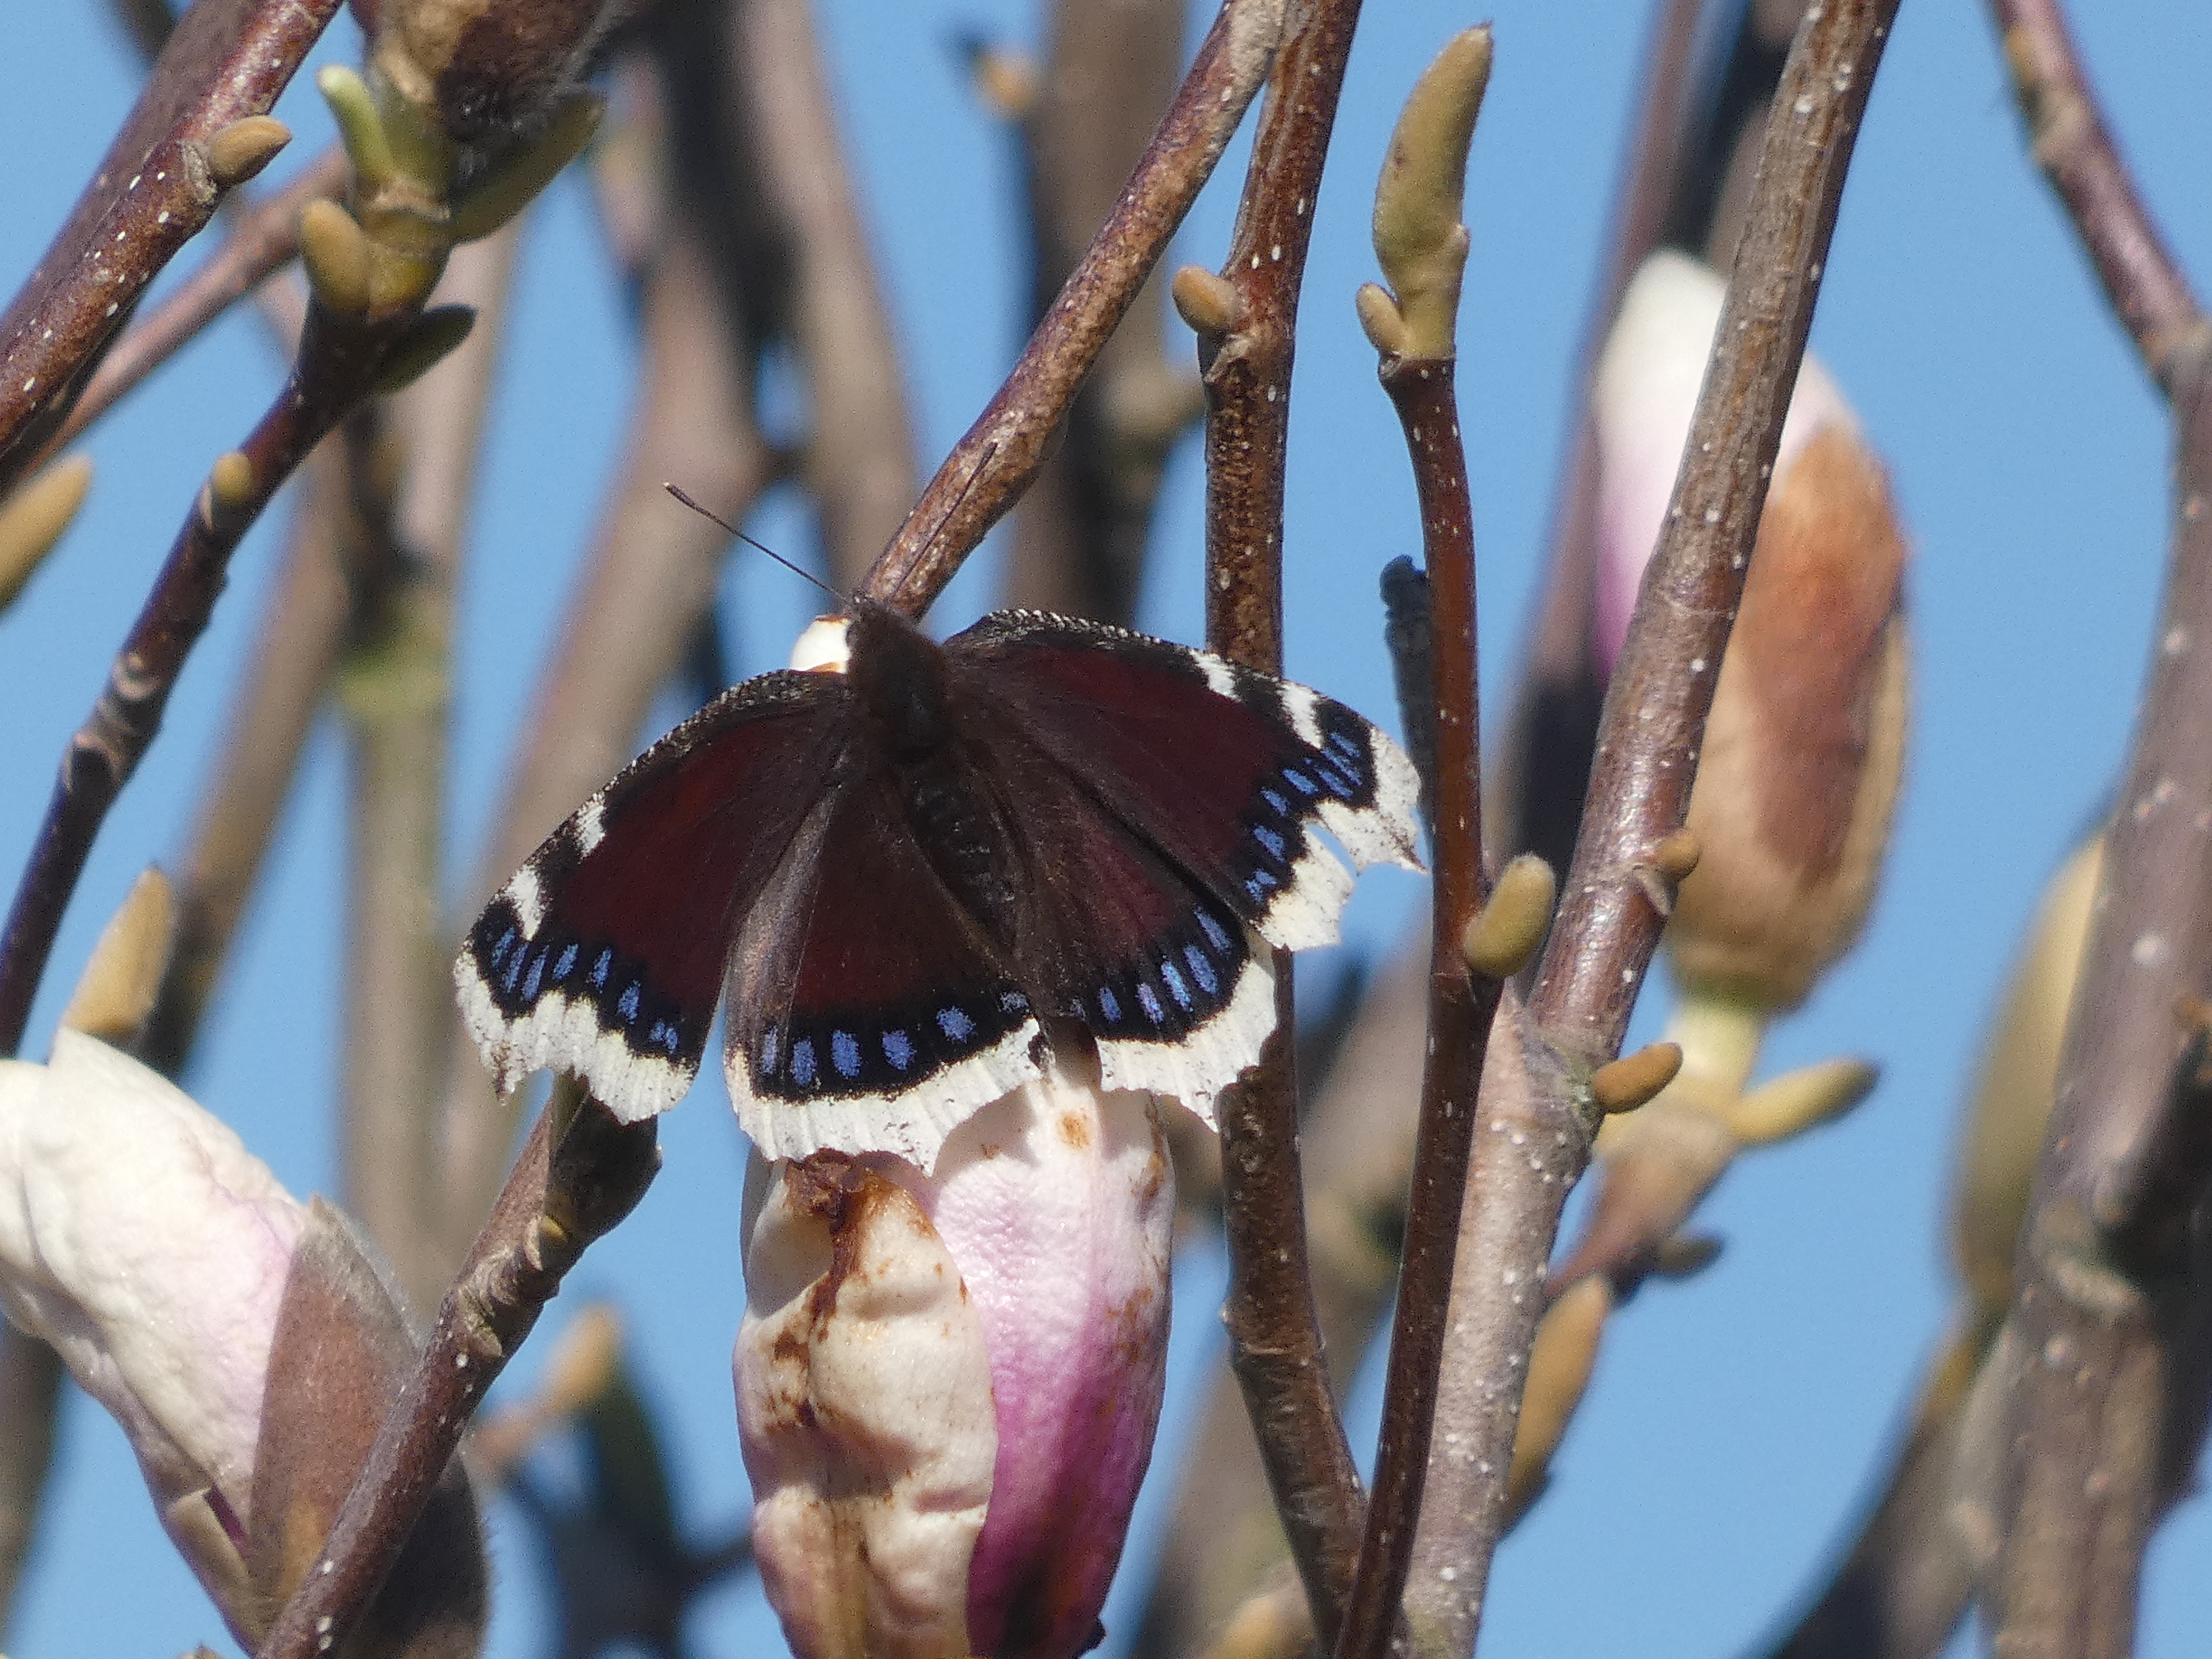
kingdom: Animalia
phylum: Arthropoda
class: Insecta
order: Lepidoptera
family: Nymphalidae
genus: Nymphalis
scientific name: Nymphalis antiopa
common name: Sørgekåbe
